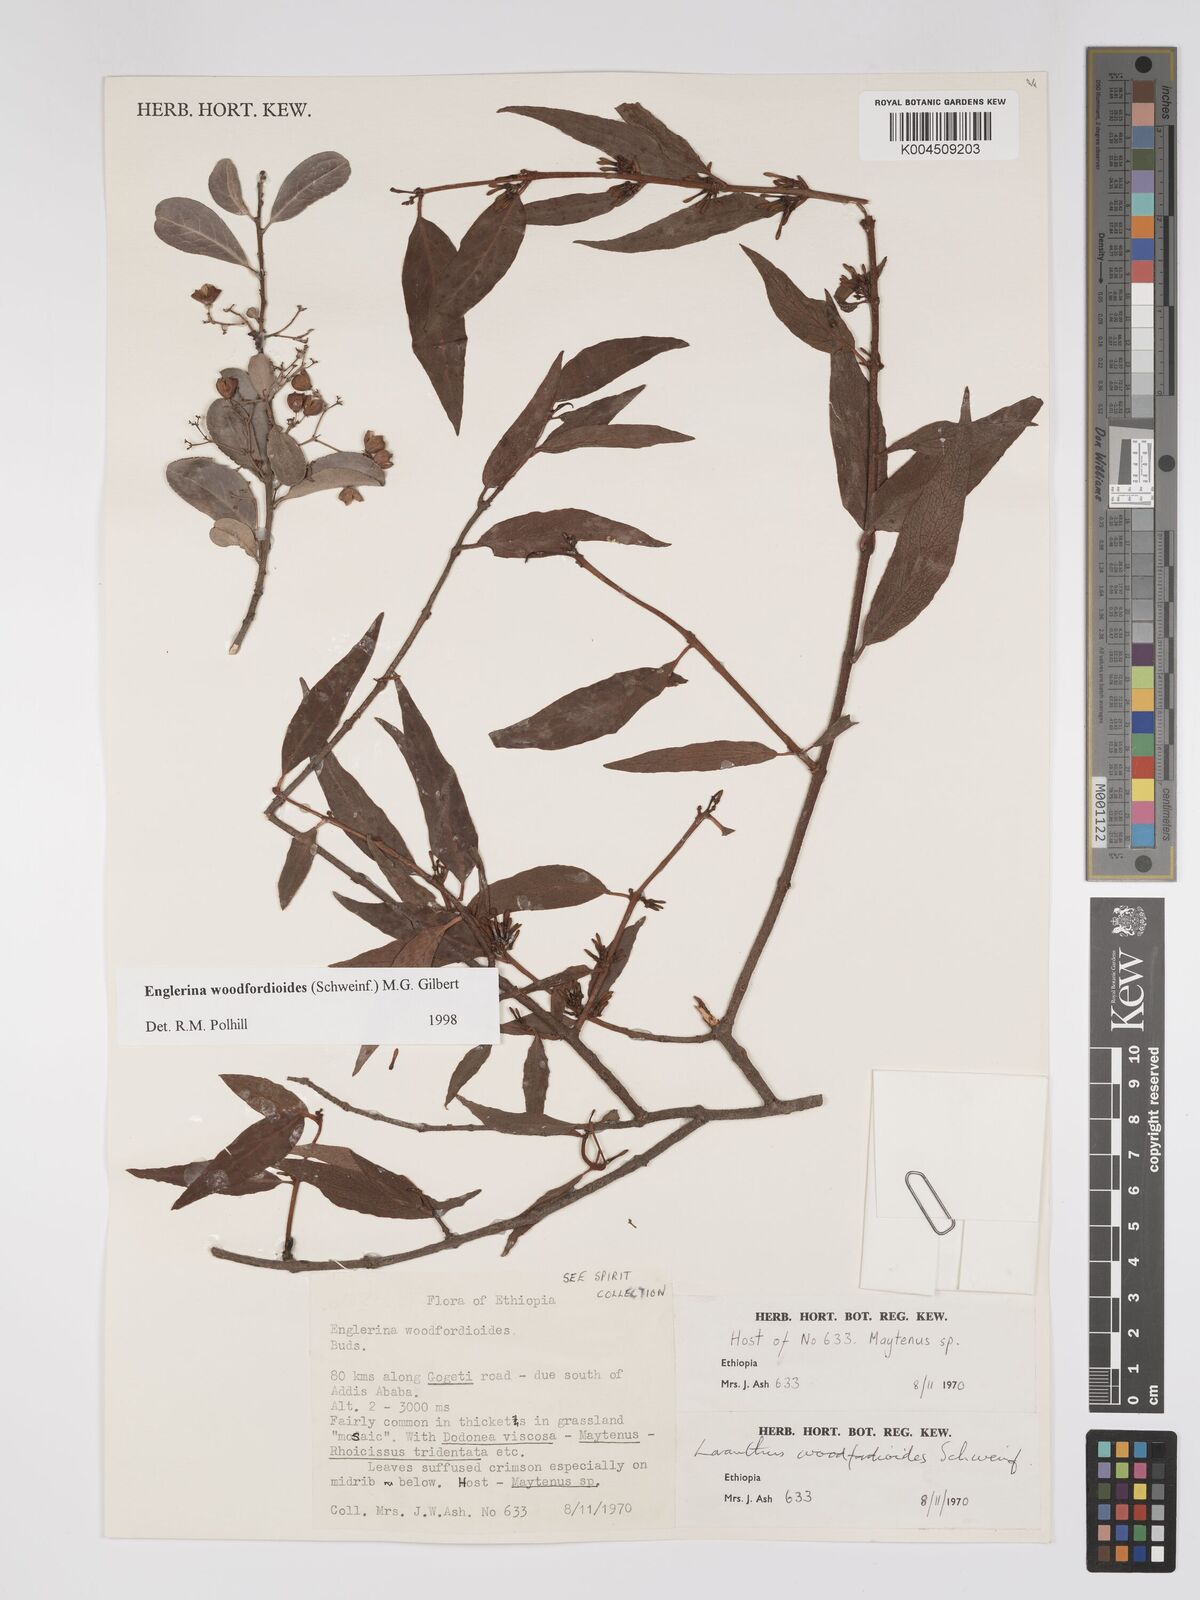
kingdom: Plantae
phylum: Tracheophyta
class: Magnoliopsida
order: Santalales
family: Loranthaceae
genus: Englerina
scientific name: Englerina woodfordioides
